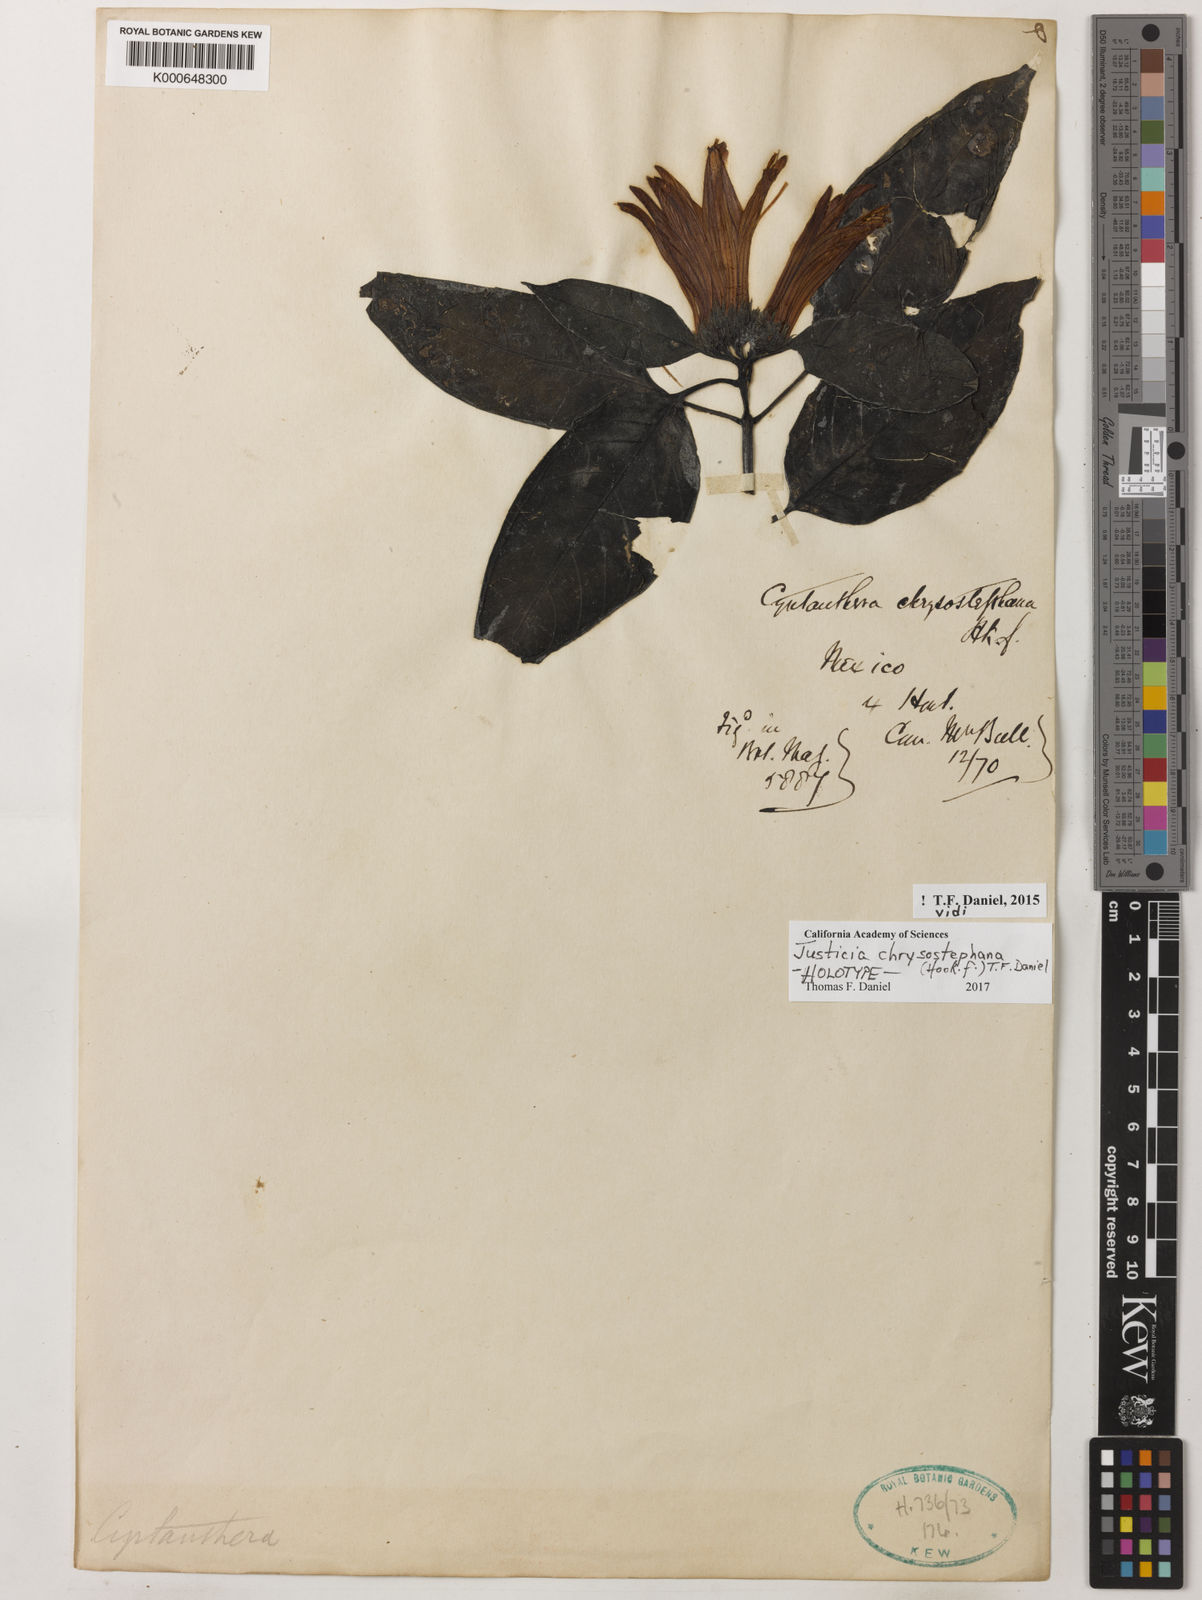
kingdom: Plantae
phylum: Tracheophyta
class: Magnoliopsida
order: Lamiales
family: Acanthaceae
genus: Justicia
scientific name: Justicia chrysostephana
